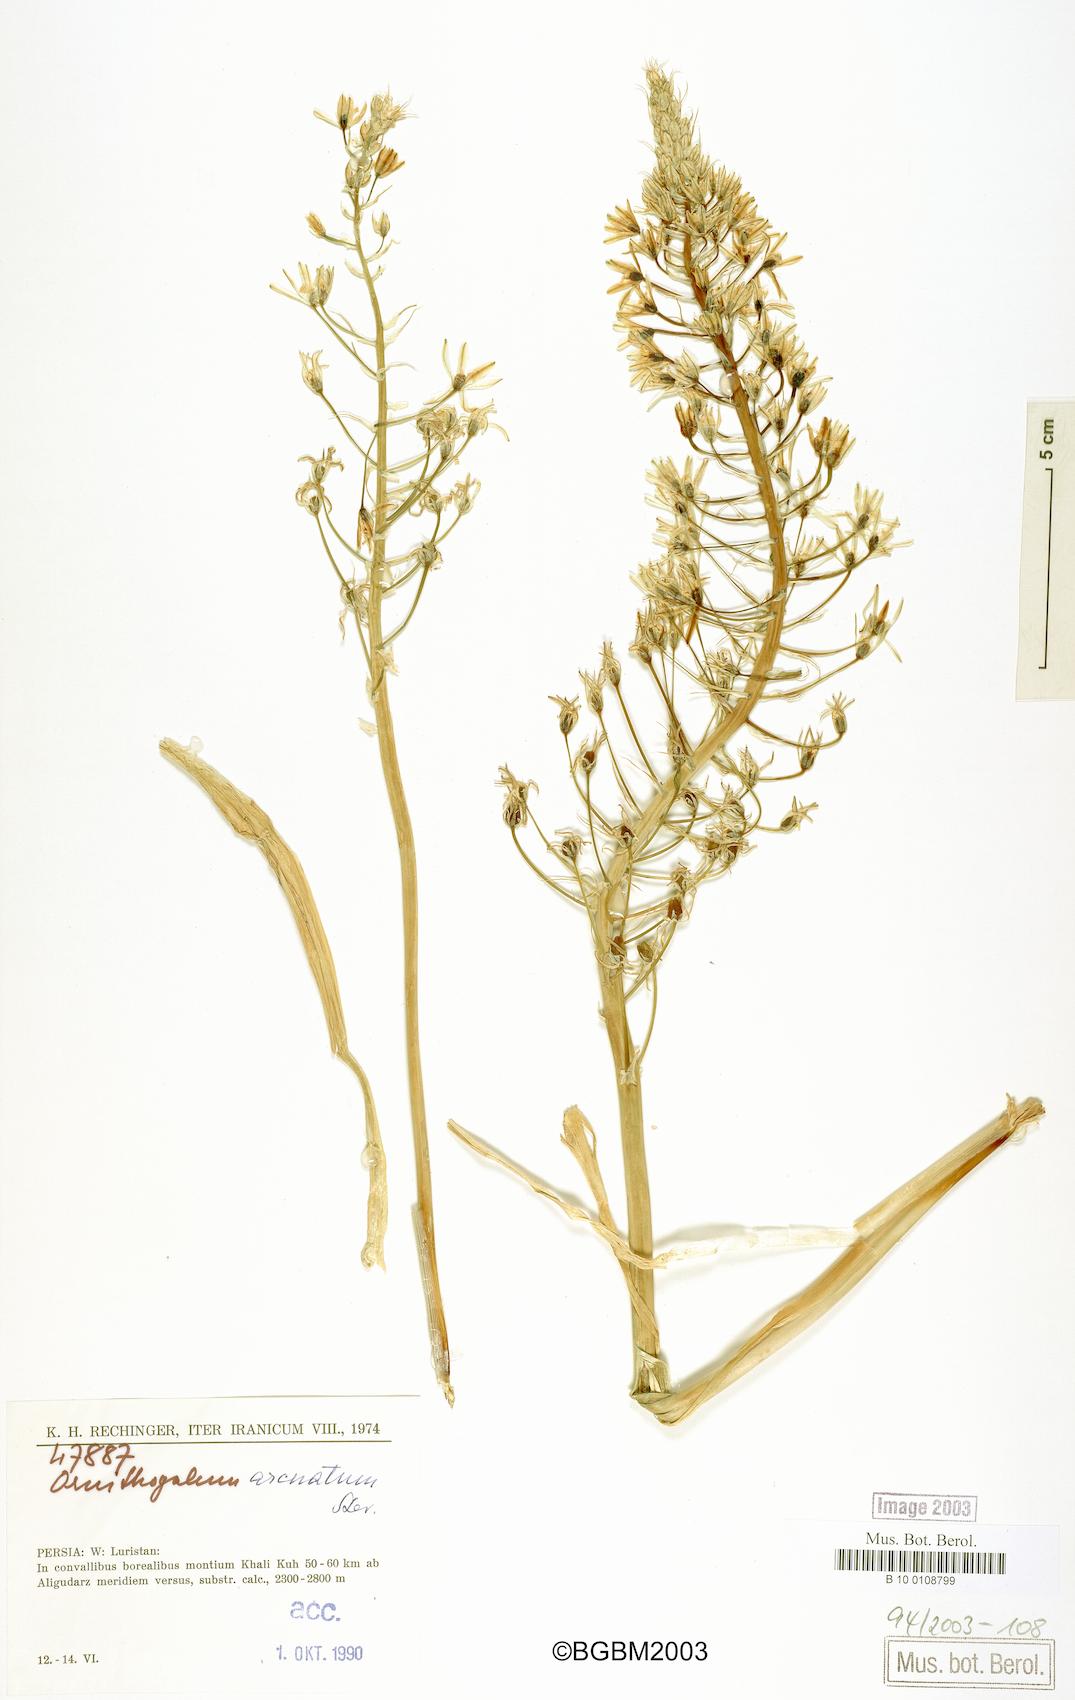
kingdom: Plantae
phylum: Tracheophyta
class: Liliopsida
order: Asparagales
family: Asparagaceae
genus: Ornithogalum
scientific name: Ornithogalum arcuatum
